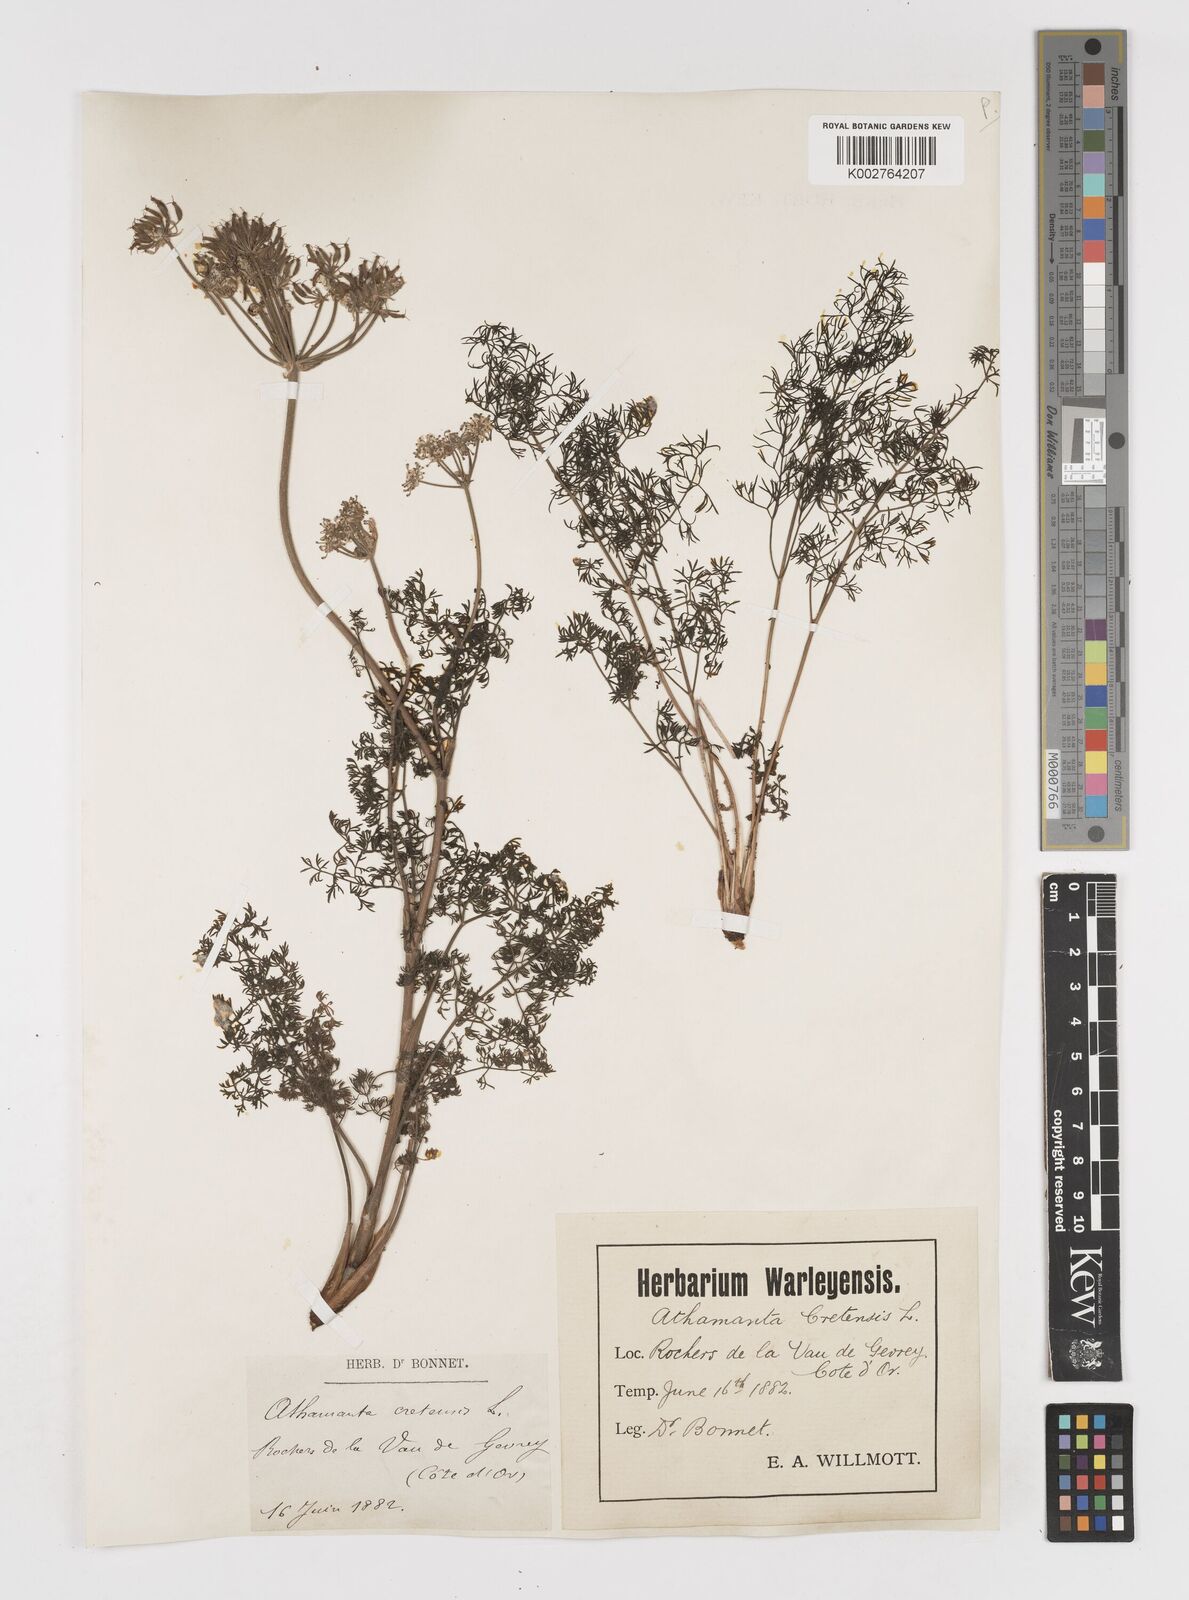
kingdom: Plantae
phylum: Tracheophyta
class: Magnoliopsida
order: Apiales
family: Apiaceae
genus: Athamanta
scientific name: Athamanta cretensis
